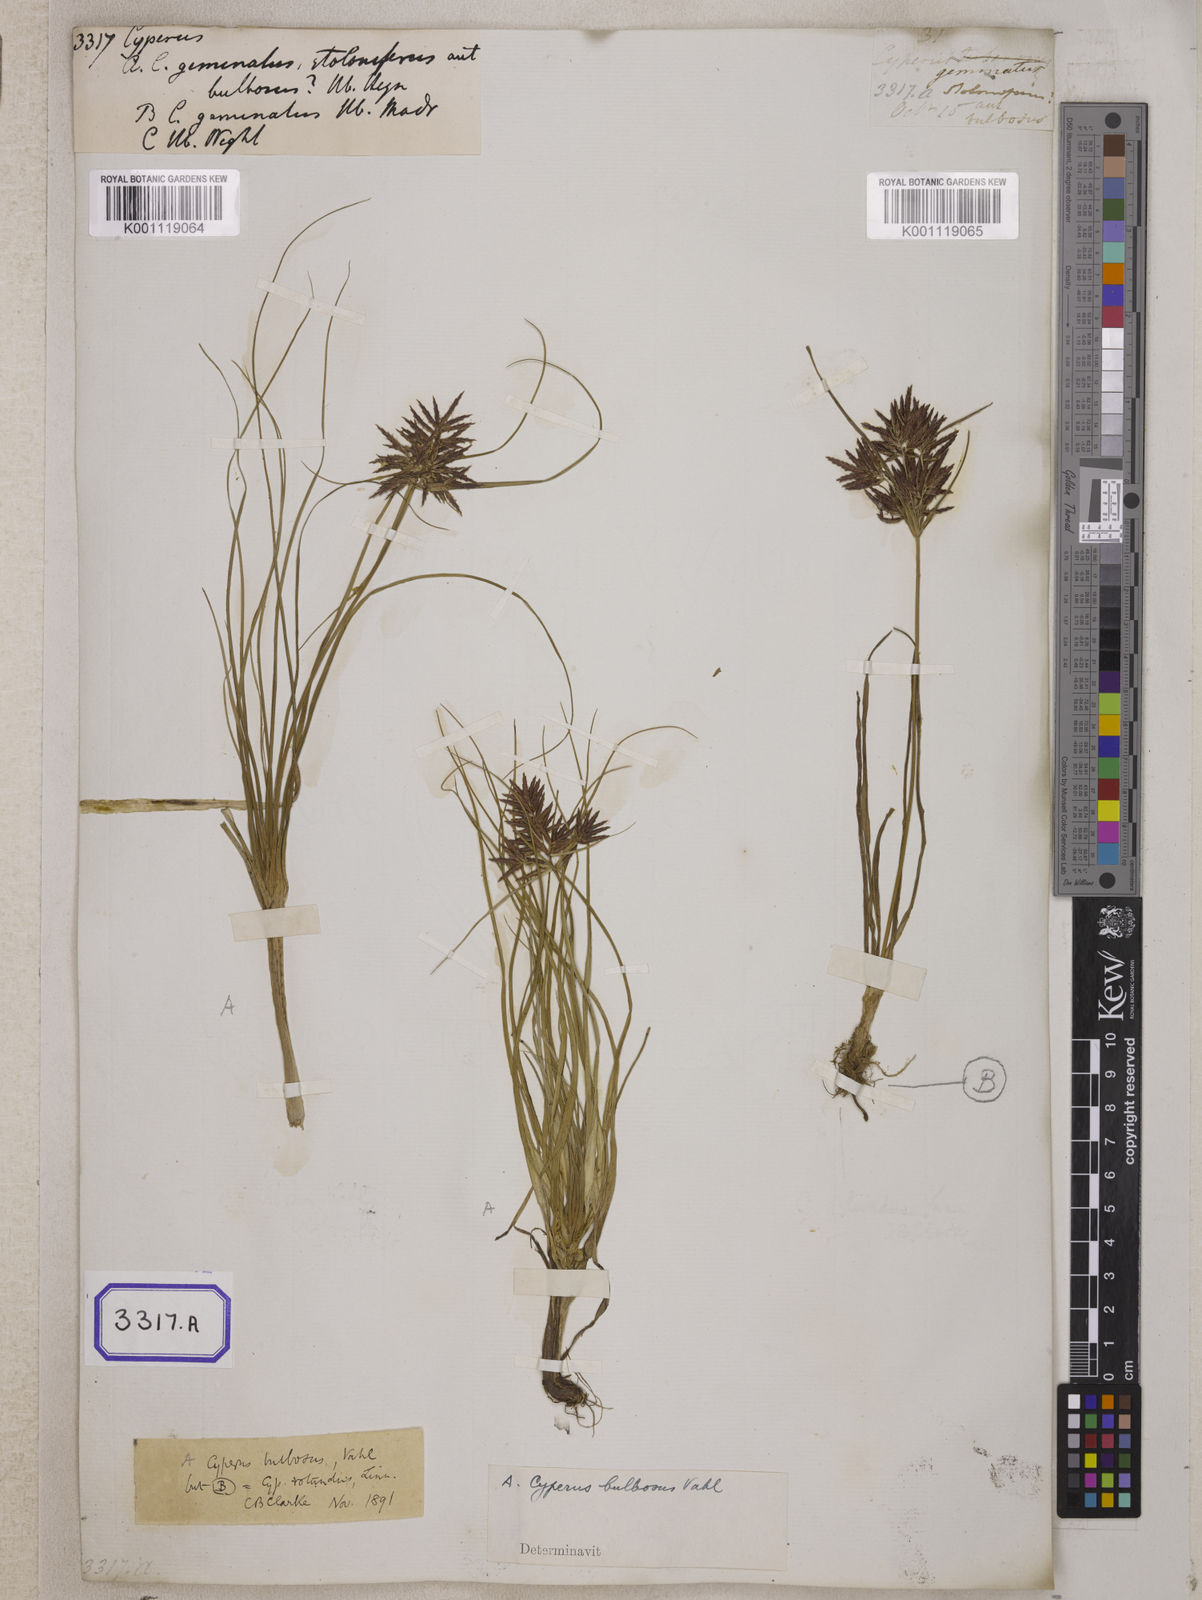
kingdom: Plantae
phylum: Tracheophyta
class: Liliopsida
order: Poales
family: Cyperaceae
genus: Cyperus
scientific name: Cyperus
